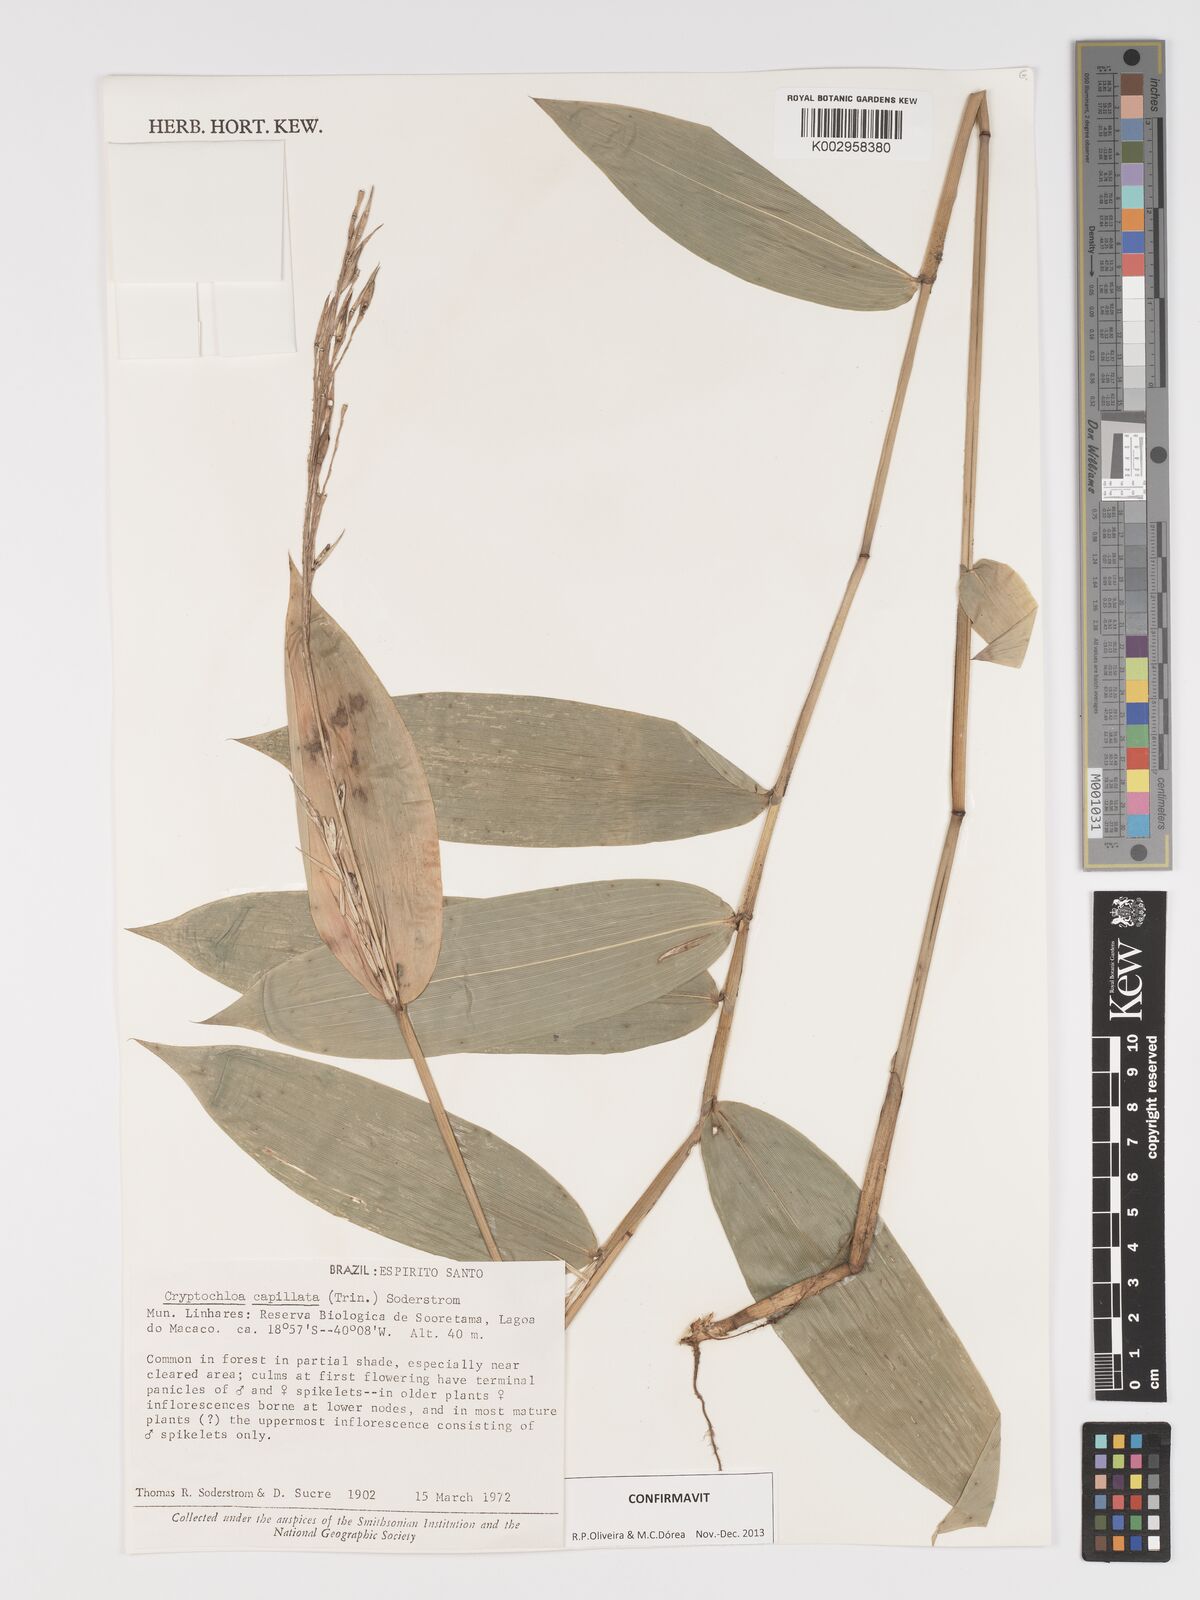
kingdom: Plantae
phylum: Tracheophyta
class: Liliopsida
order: Poales
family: Poaceae
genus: Cryptochloa
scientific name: Cryptochloa capillata
